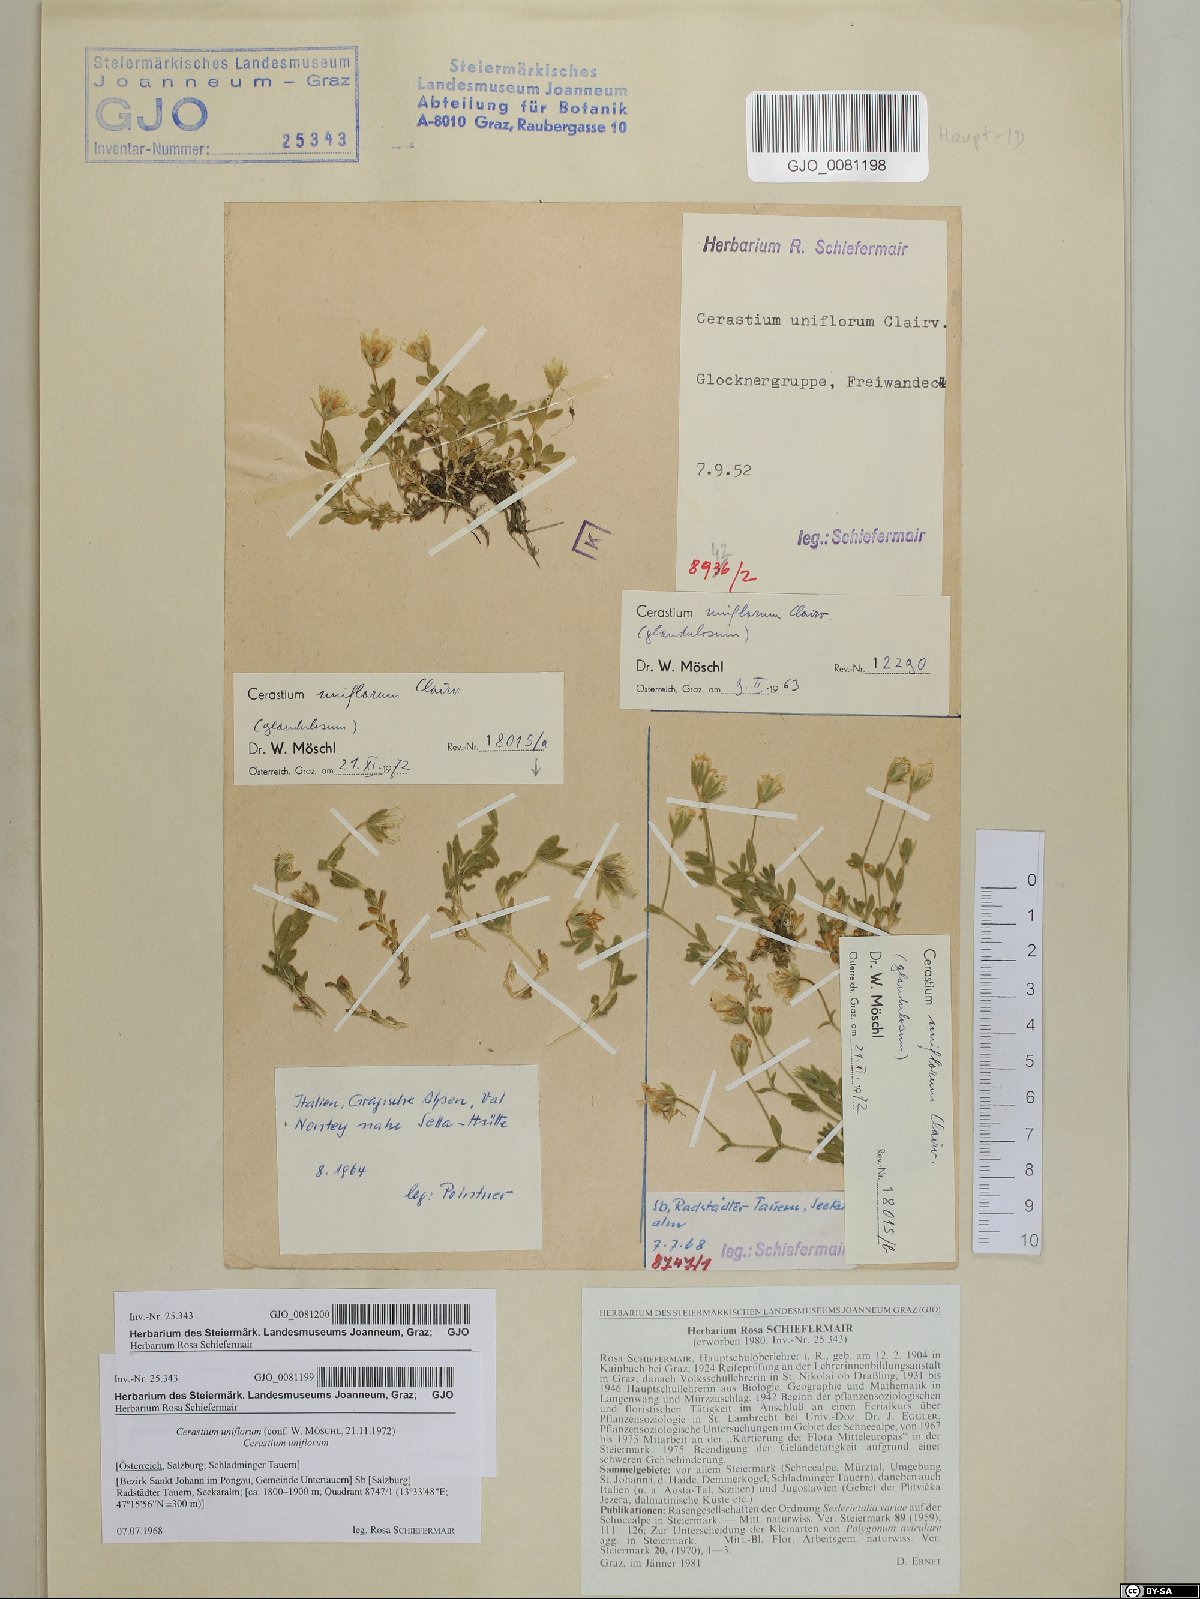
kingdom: Plantae
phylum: Tracheophyta
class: Magnoliopsida
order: Caryophyllales
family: Caryophyllaceae
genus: Cerastium
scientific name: Cerastium uniflorum
